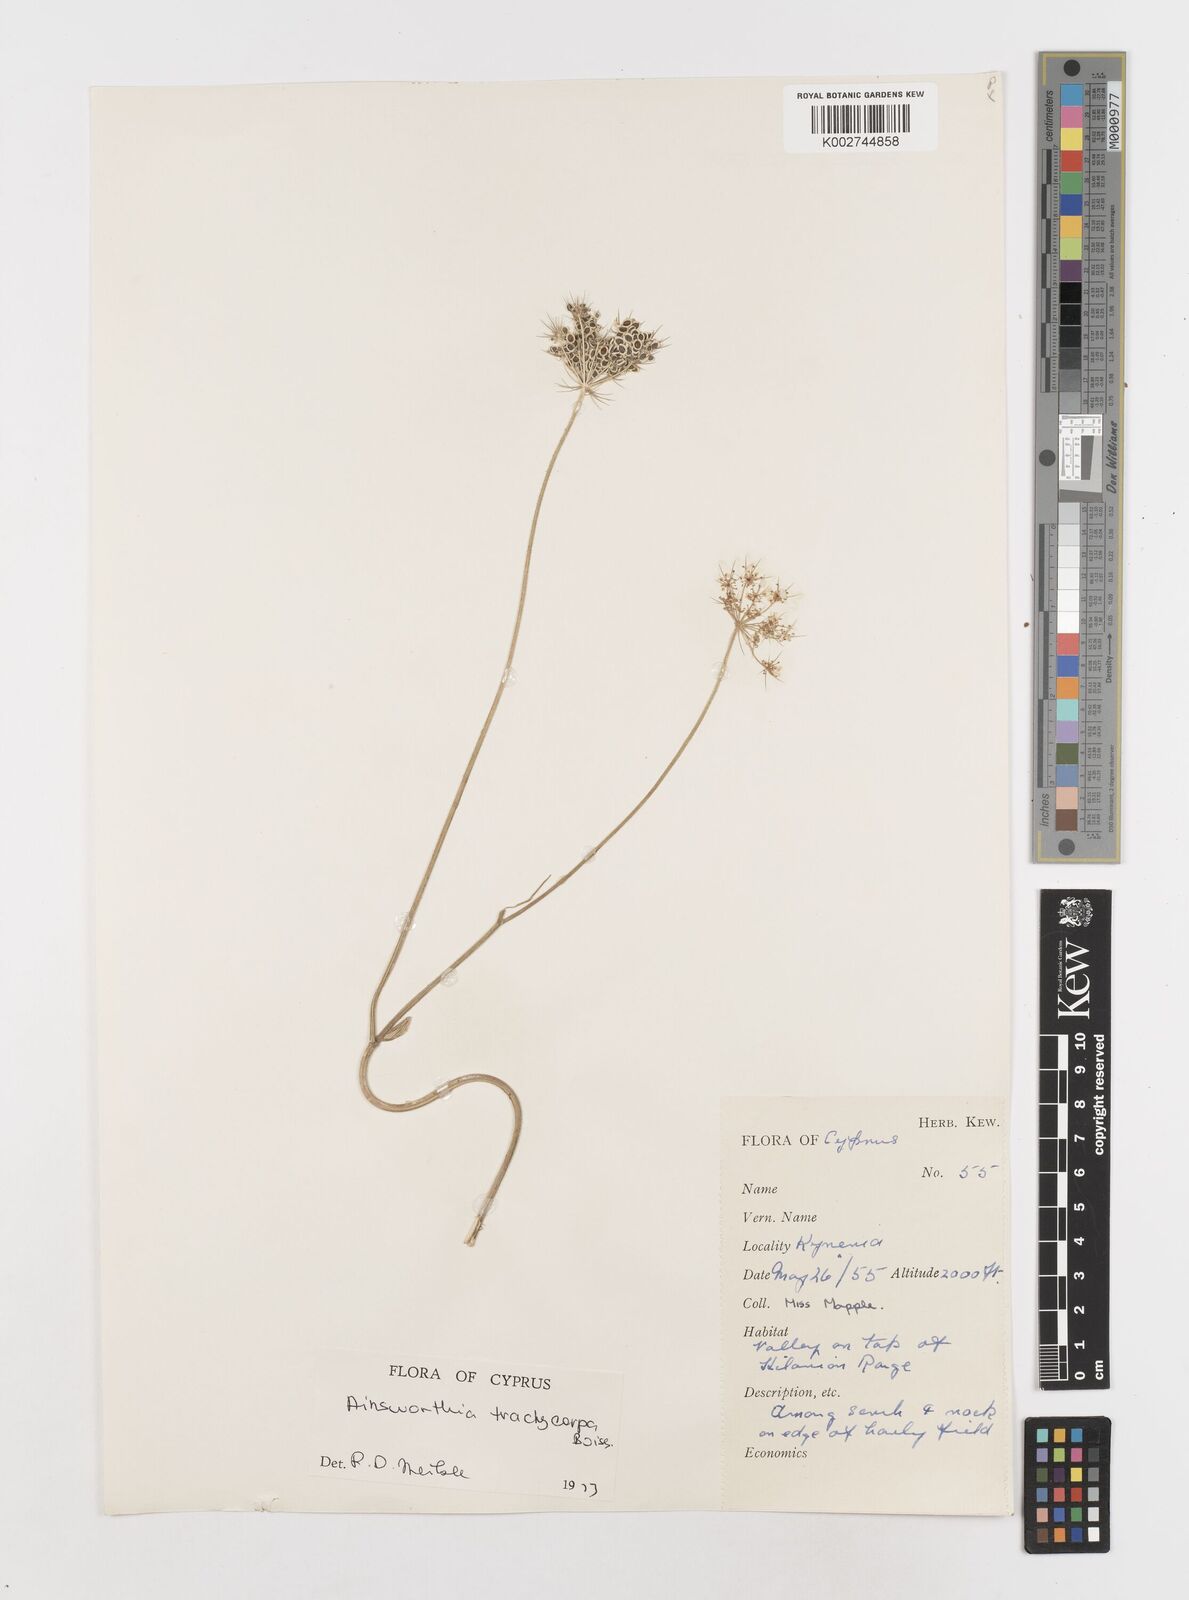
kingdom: Plantae
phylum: Tracheophyta
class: Magnoliopsida
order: Apiales
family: Apiaceae
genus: Ainsworthia
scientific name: Ainsworthia cordata
